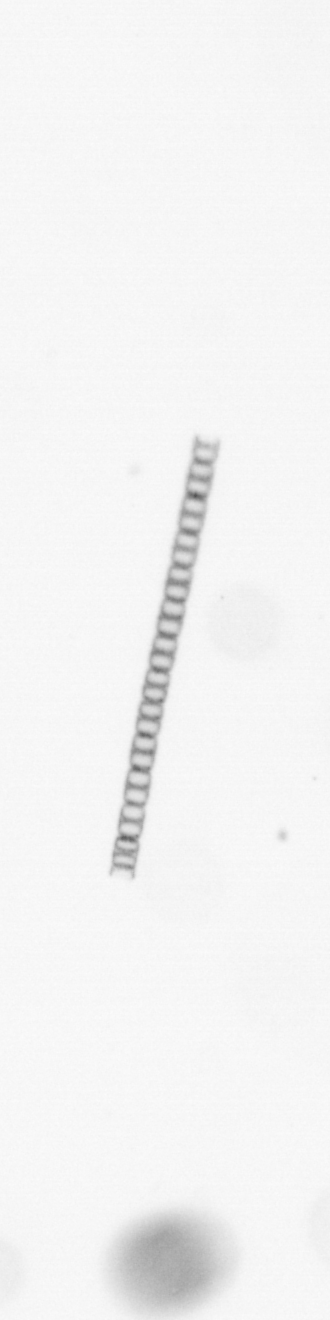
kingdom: Chromista
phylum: Ochrophyta
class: Bacillariophyceae
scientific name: Bacillariophyceae
